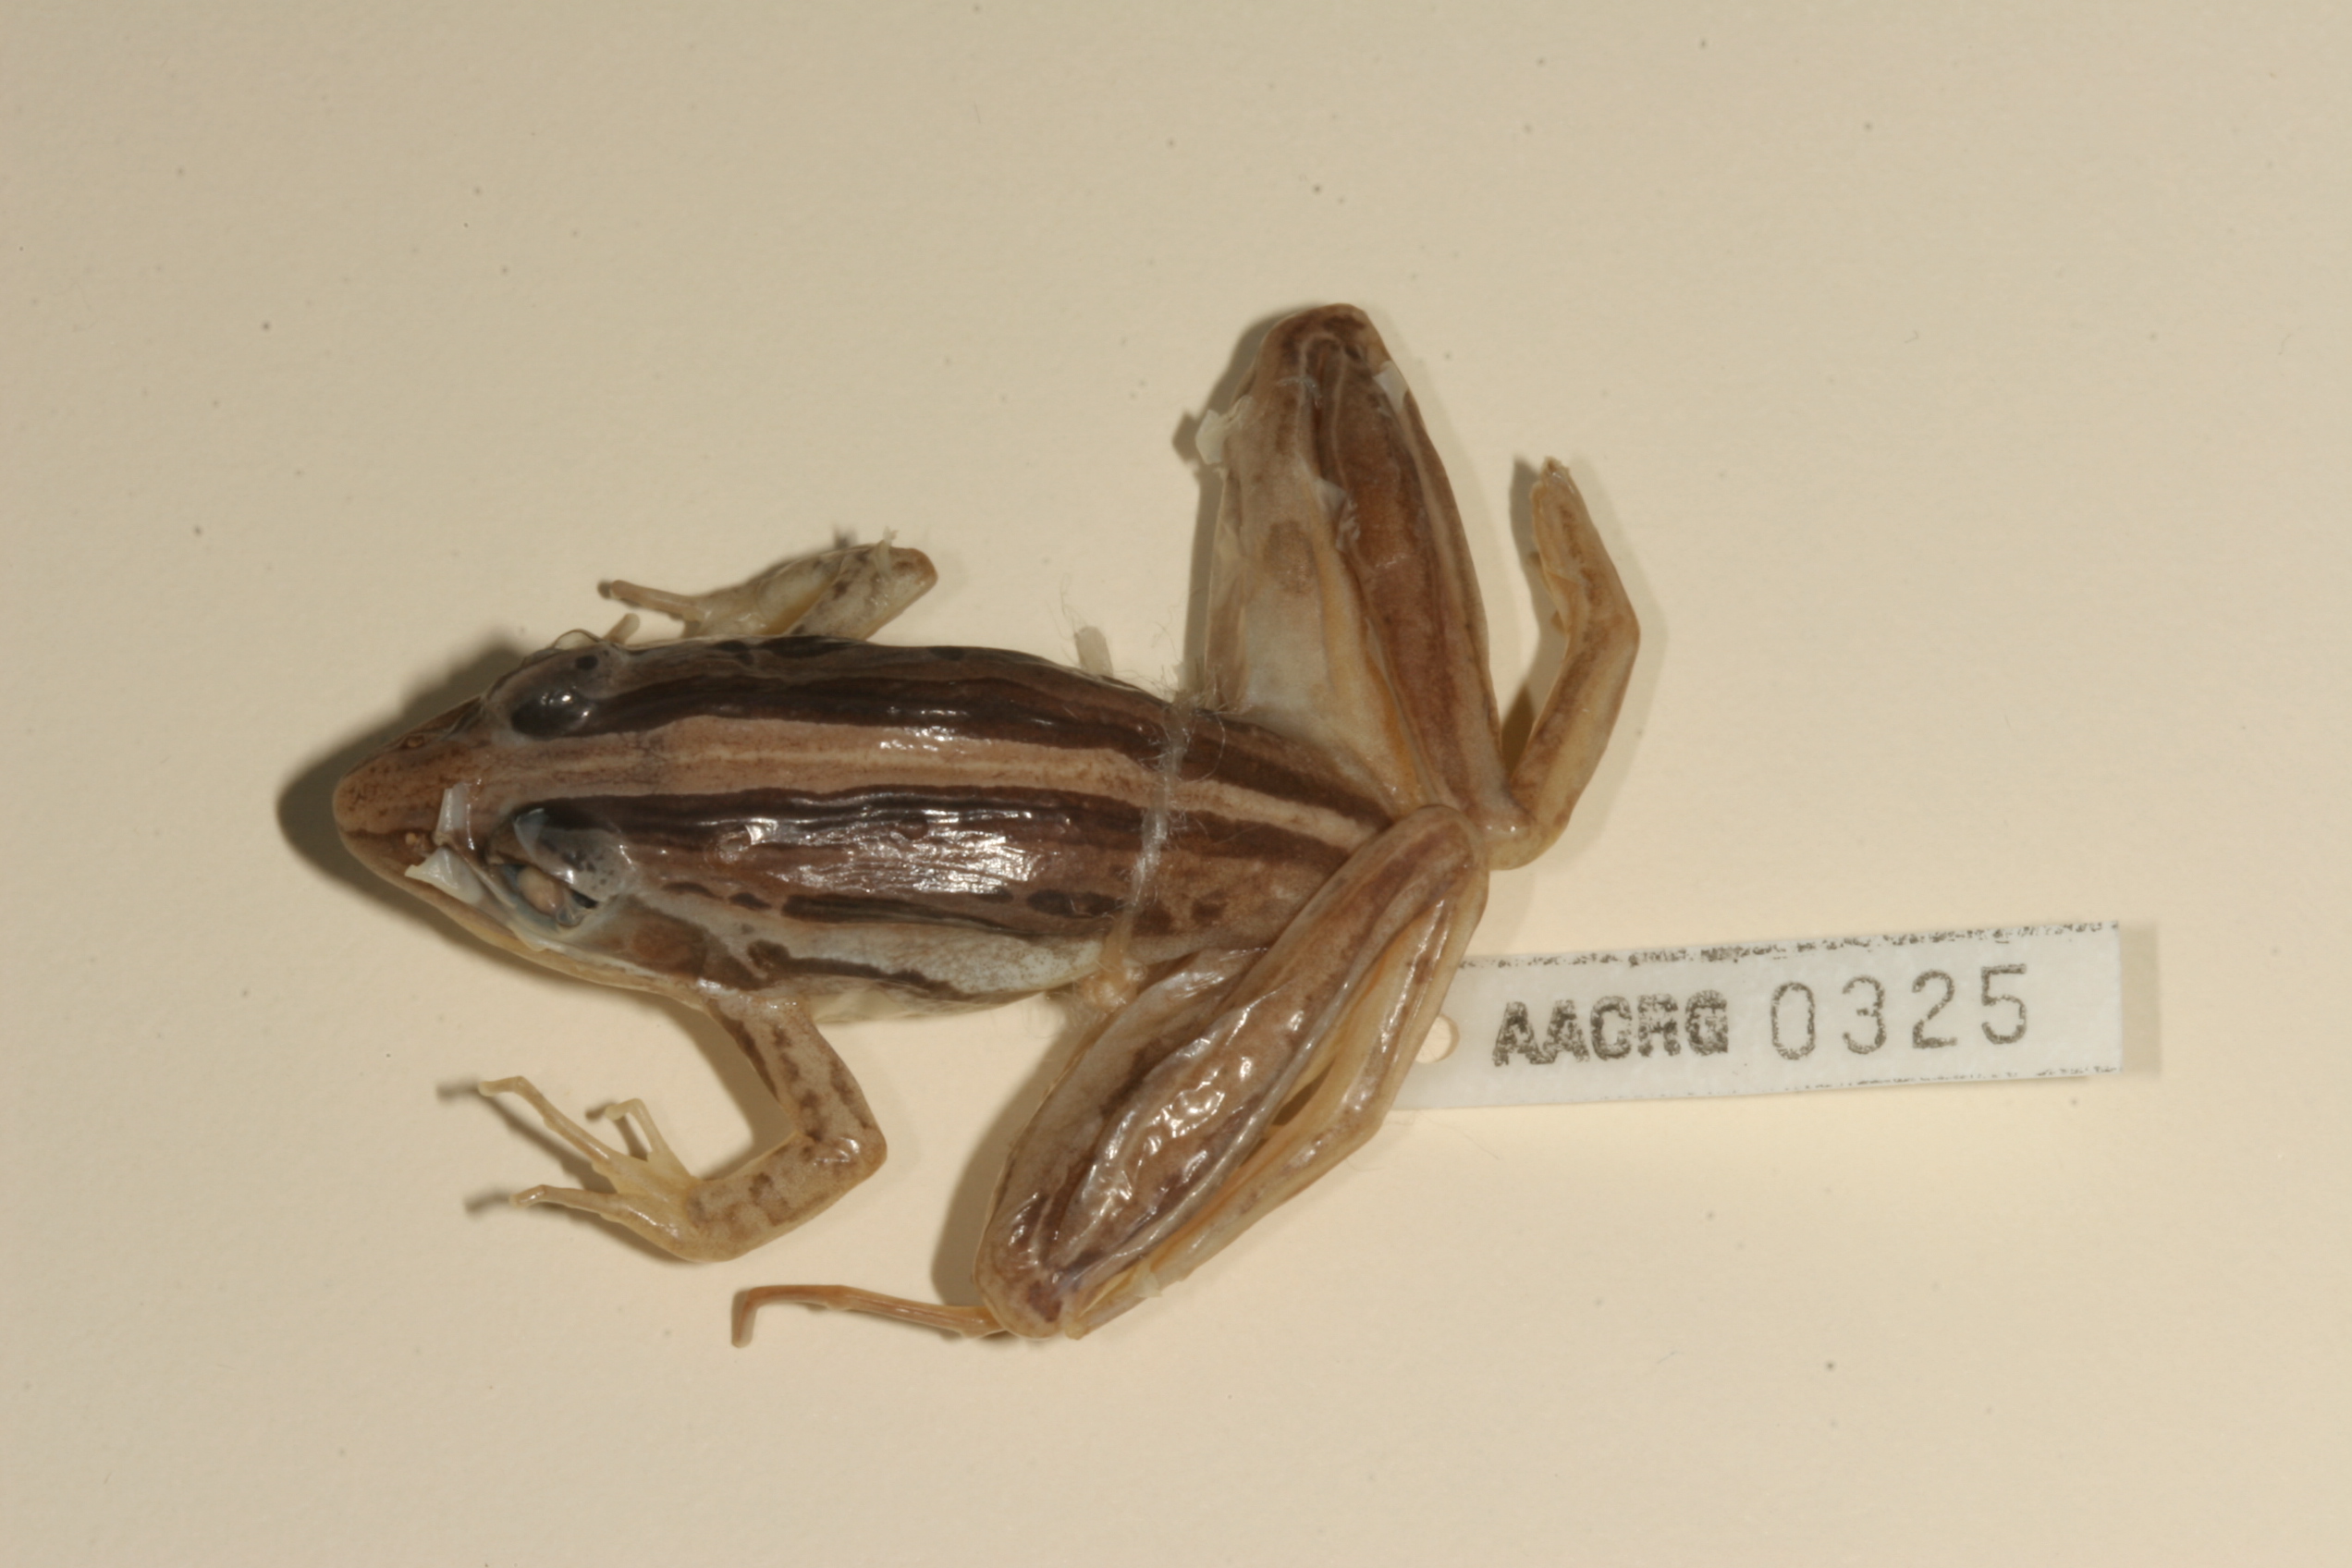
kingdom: Animalia
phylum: Chordata
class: Amphibia
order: Anura
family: Pyxicephalidae
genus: Strongylopus
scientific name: Strongylopus fasciatus
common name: Striped stream frog
